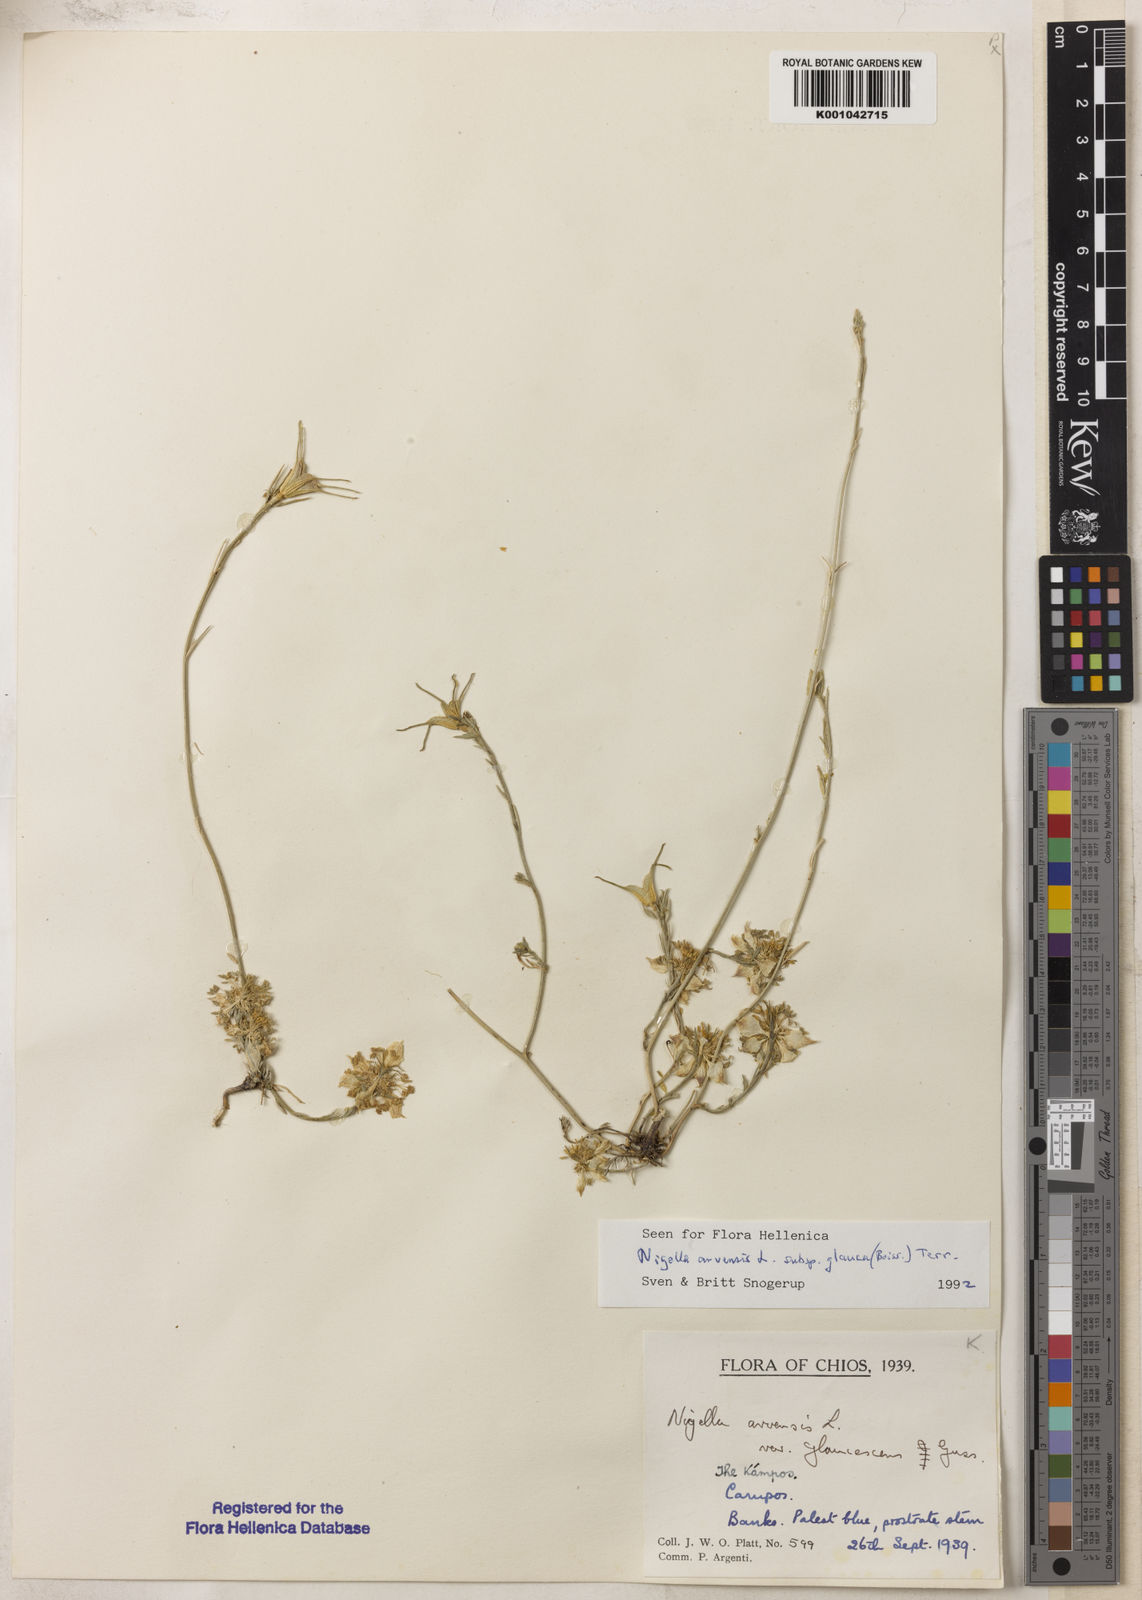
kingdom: Plantae
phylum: Tracheophyta
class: Magnoliopsida
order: Ranunculales
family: Ranunculaceae
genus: Nigella
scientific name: Nigella arvensis
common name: Wild fennel-flower
